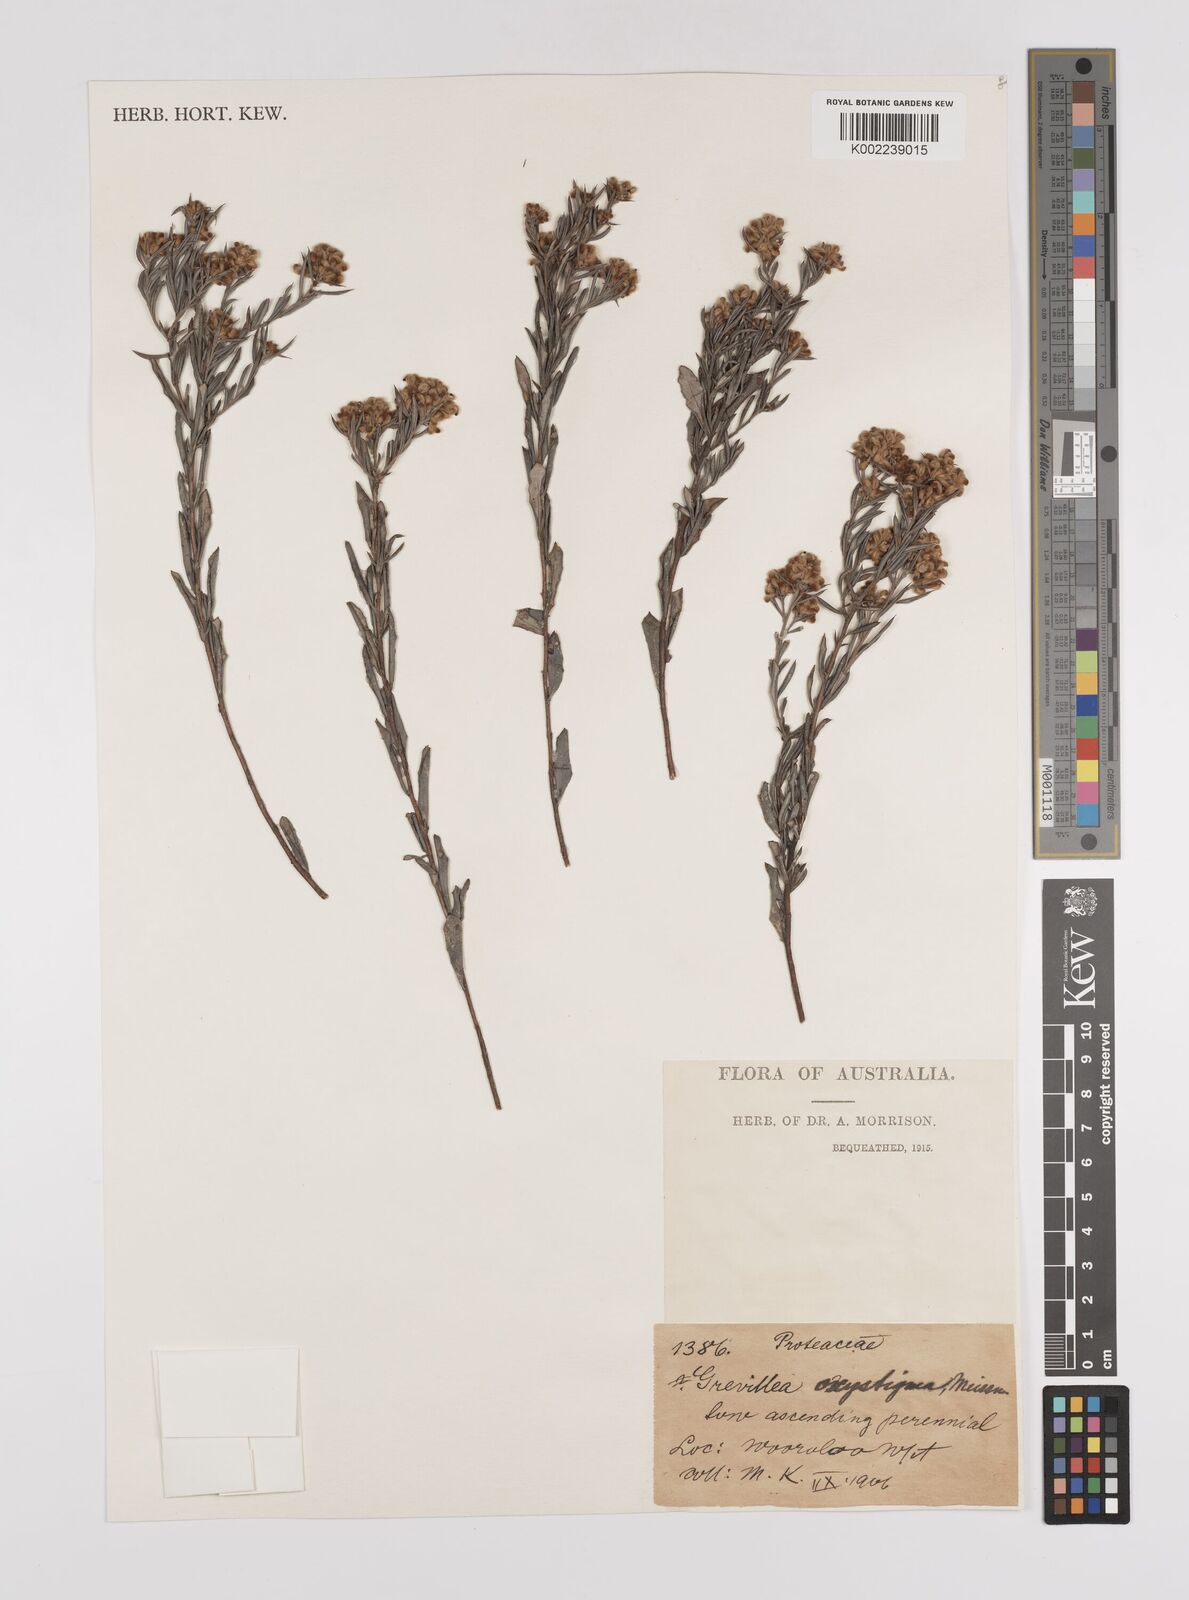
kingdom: Plantae
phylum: Tracheophyta
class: Magnoliopsida
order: Proteales
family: Proteaceae
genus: Grevillea
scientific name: Grevillea pilulifera
